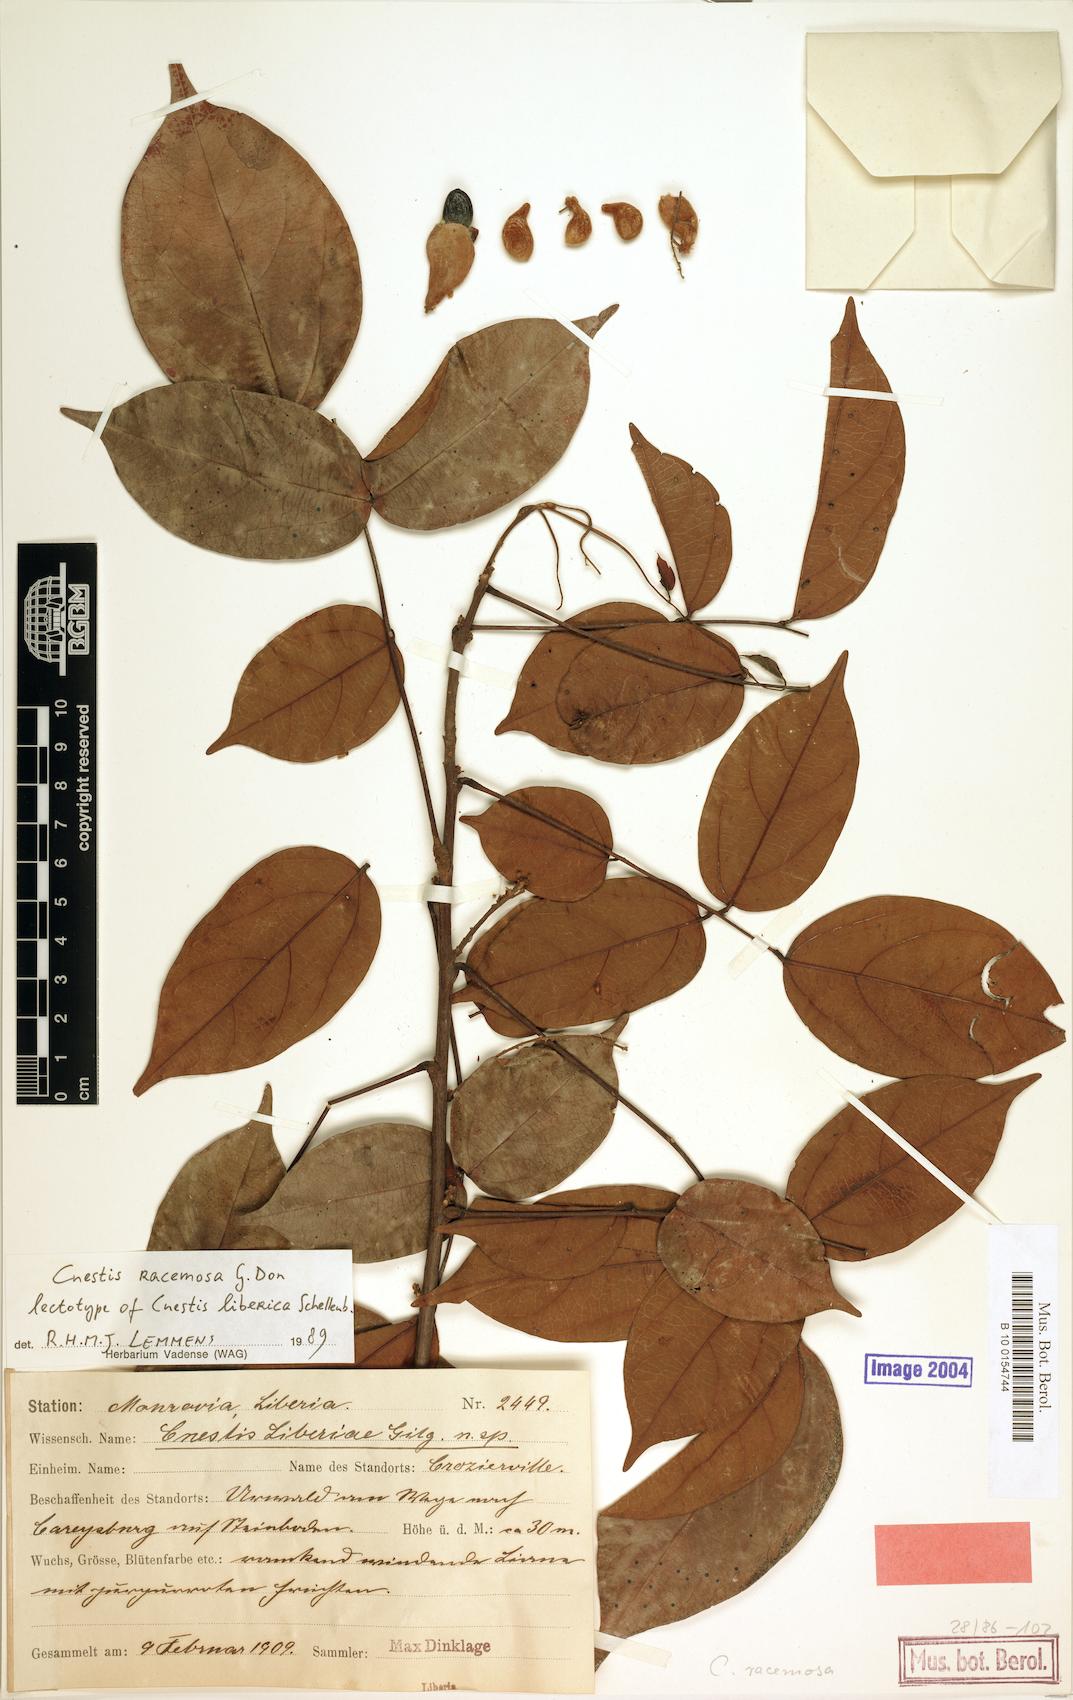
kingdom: Plantae
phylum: Tracheophyta
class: Magnoliopsida
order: Oxalidales
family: Connaraceae
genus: Cnestis
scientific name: Cnestis racemosa
